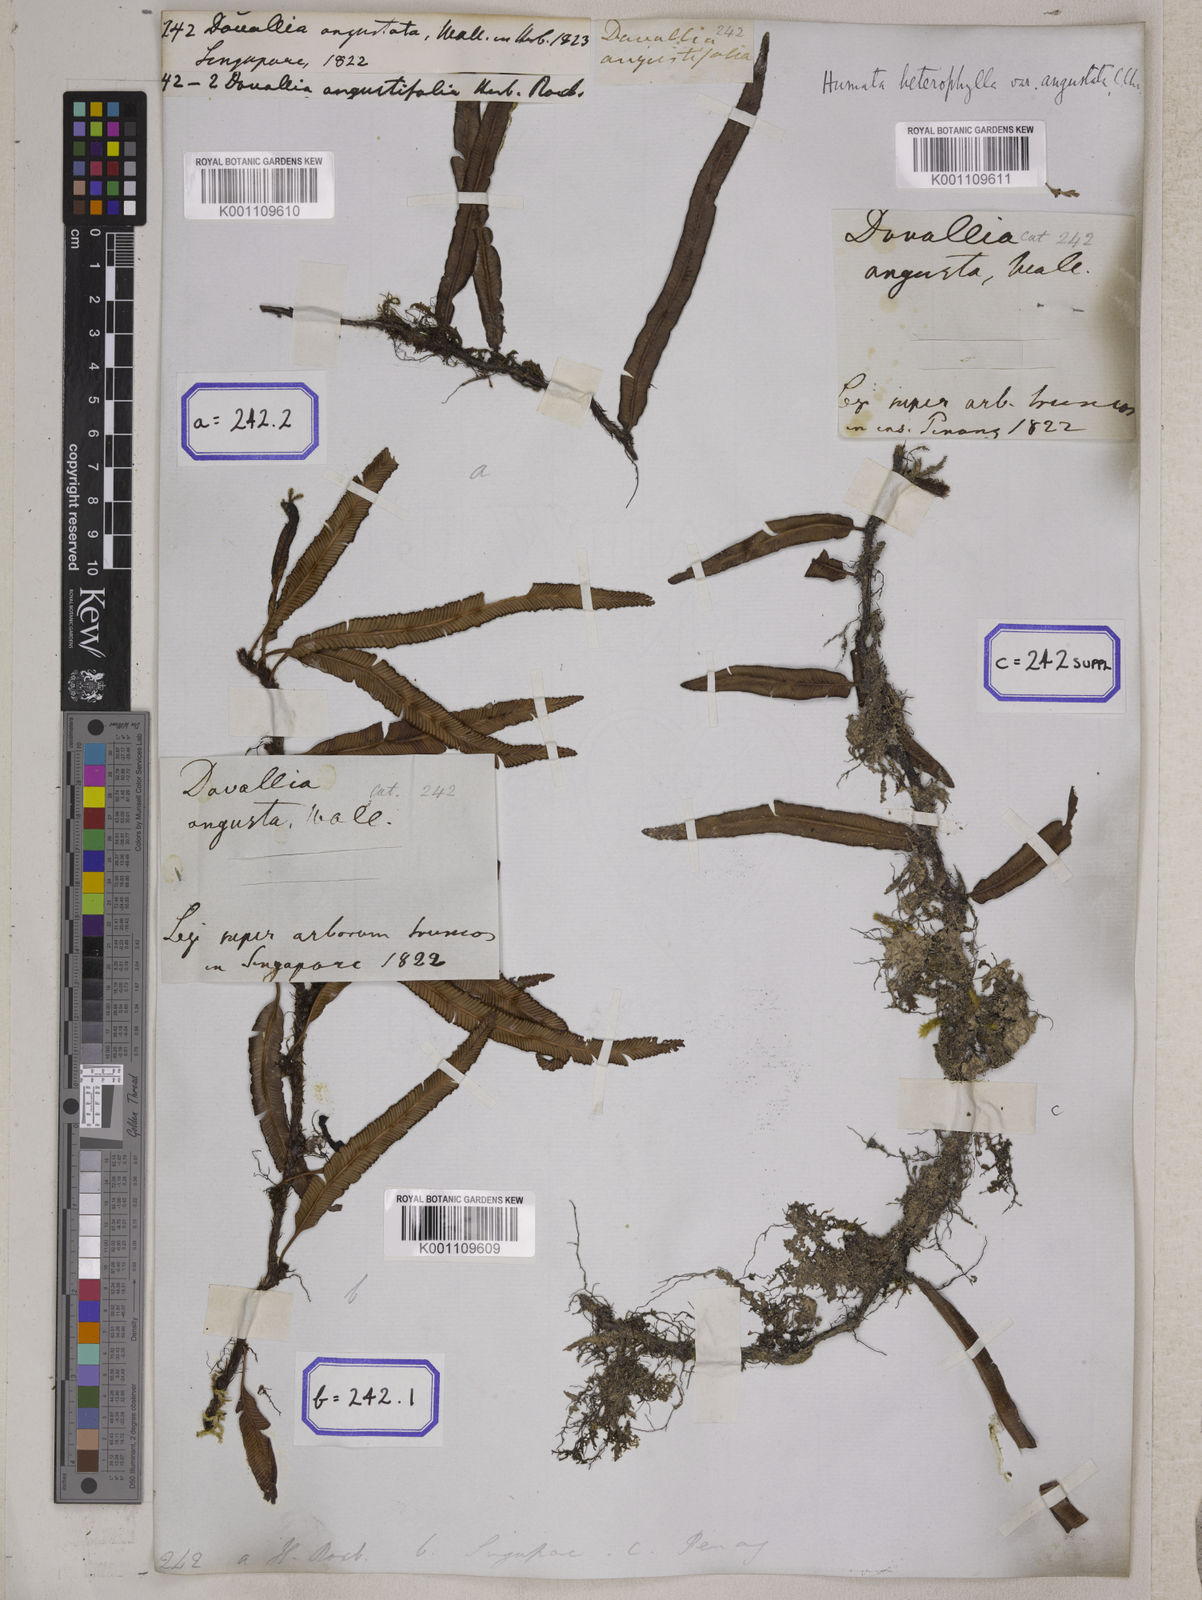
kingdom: Plantae
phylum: Tracheophyta
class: Polypodiopsida
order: Polypodiales
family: Davalliaceae
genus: Davallia
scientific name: Davallia angustata
